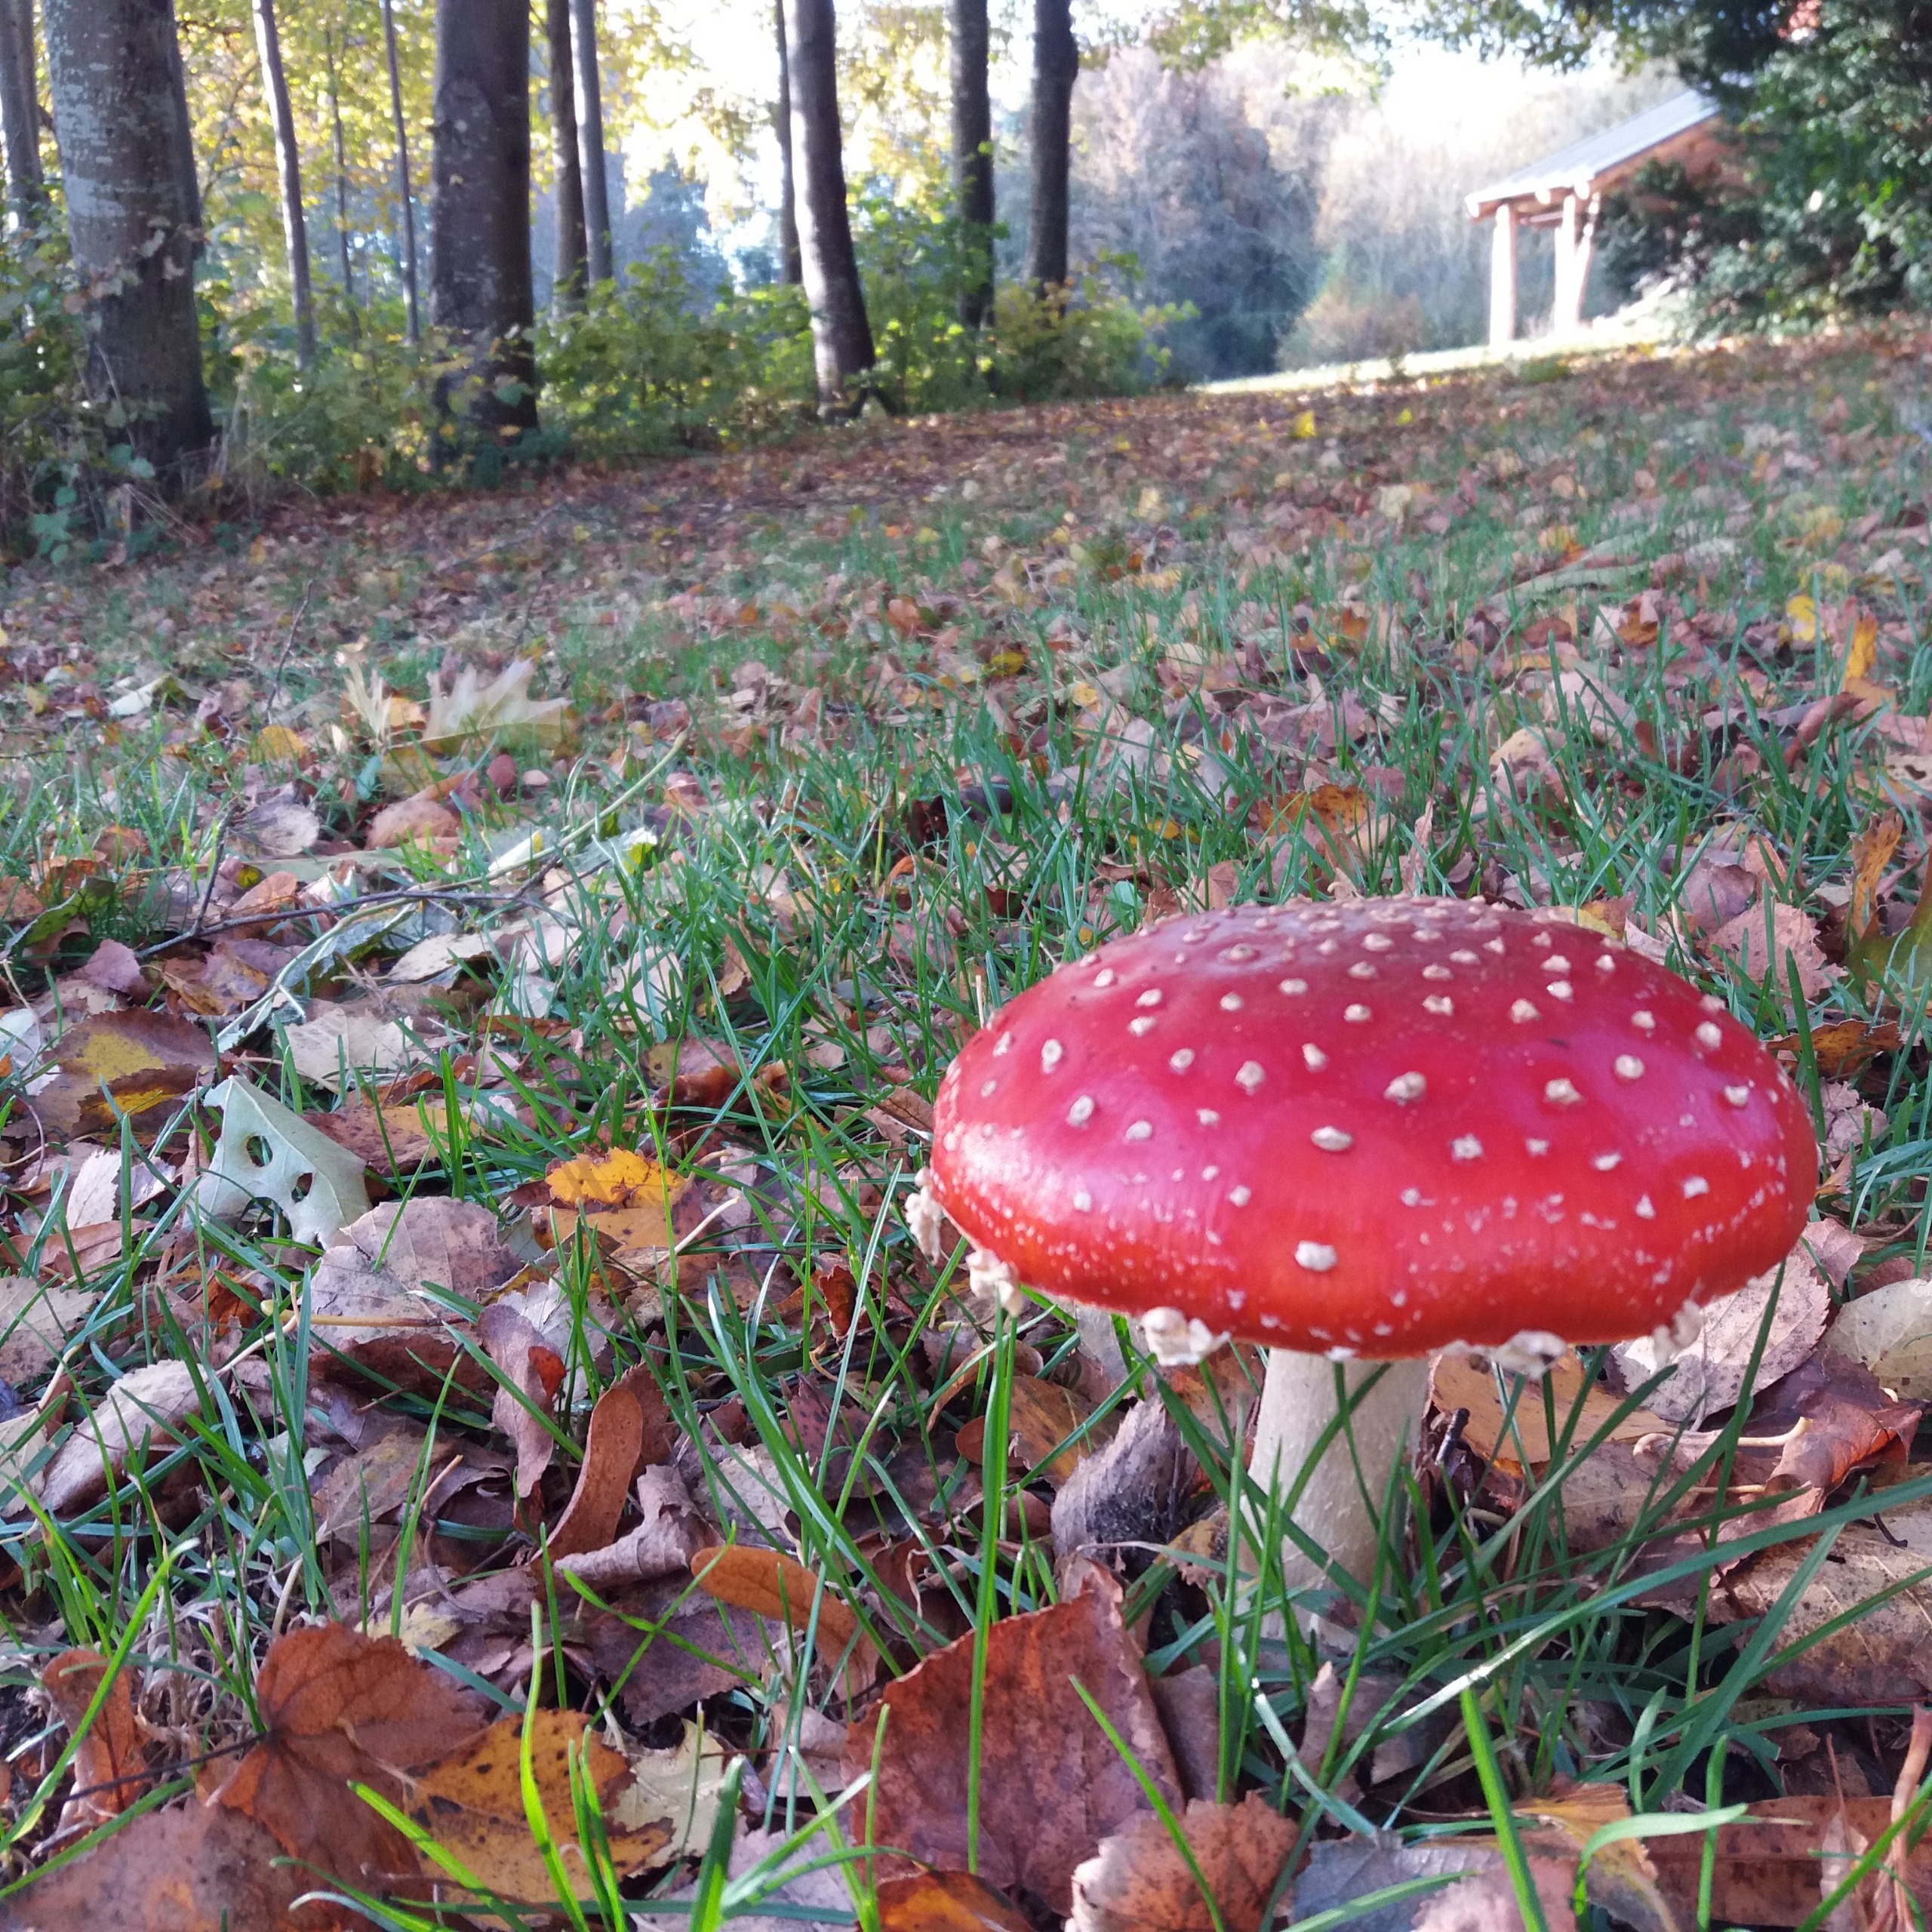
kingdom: Fungi
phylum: Basidiomycota
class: Agaricomycetes
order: Agaricales
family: Amanitaceae
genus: Amanita
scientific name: Amanita muscaria
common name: Rød fluesvamp
